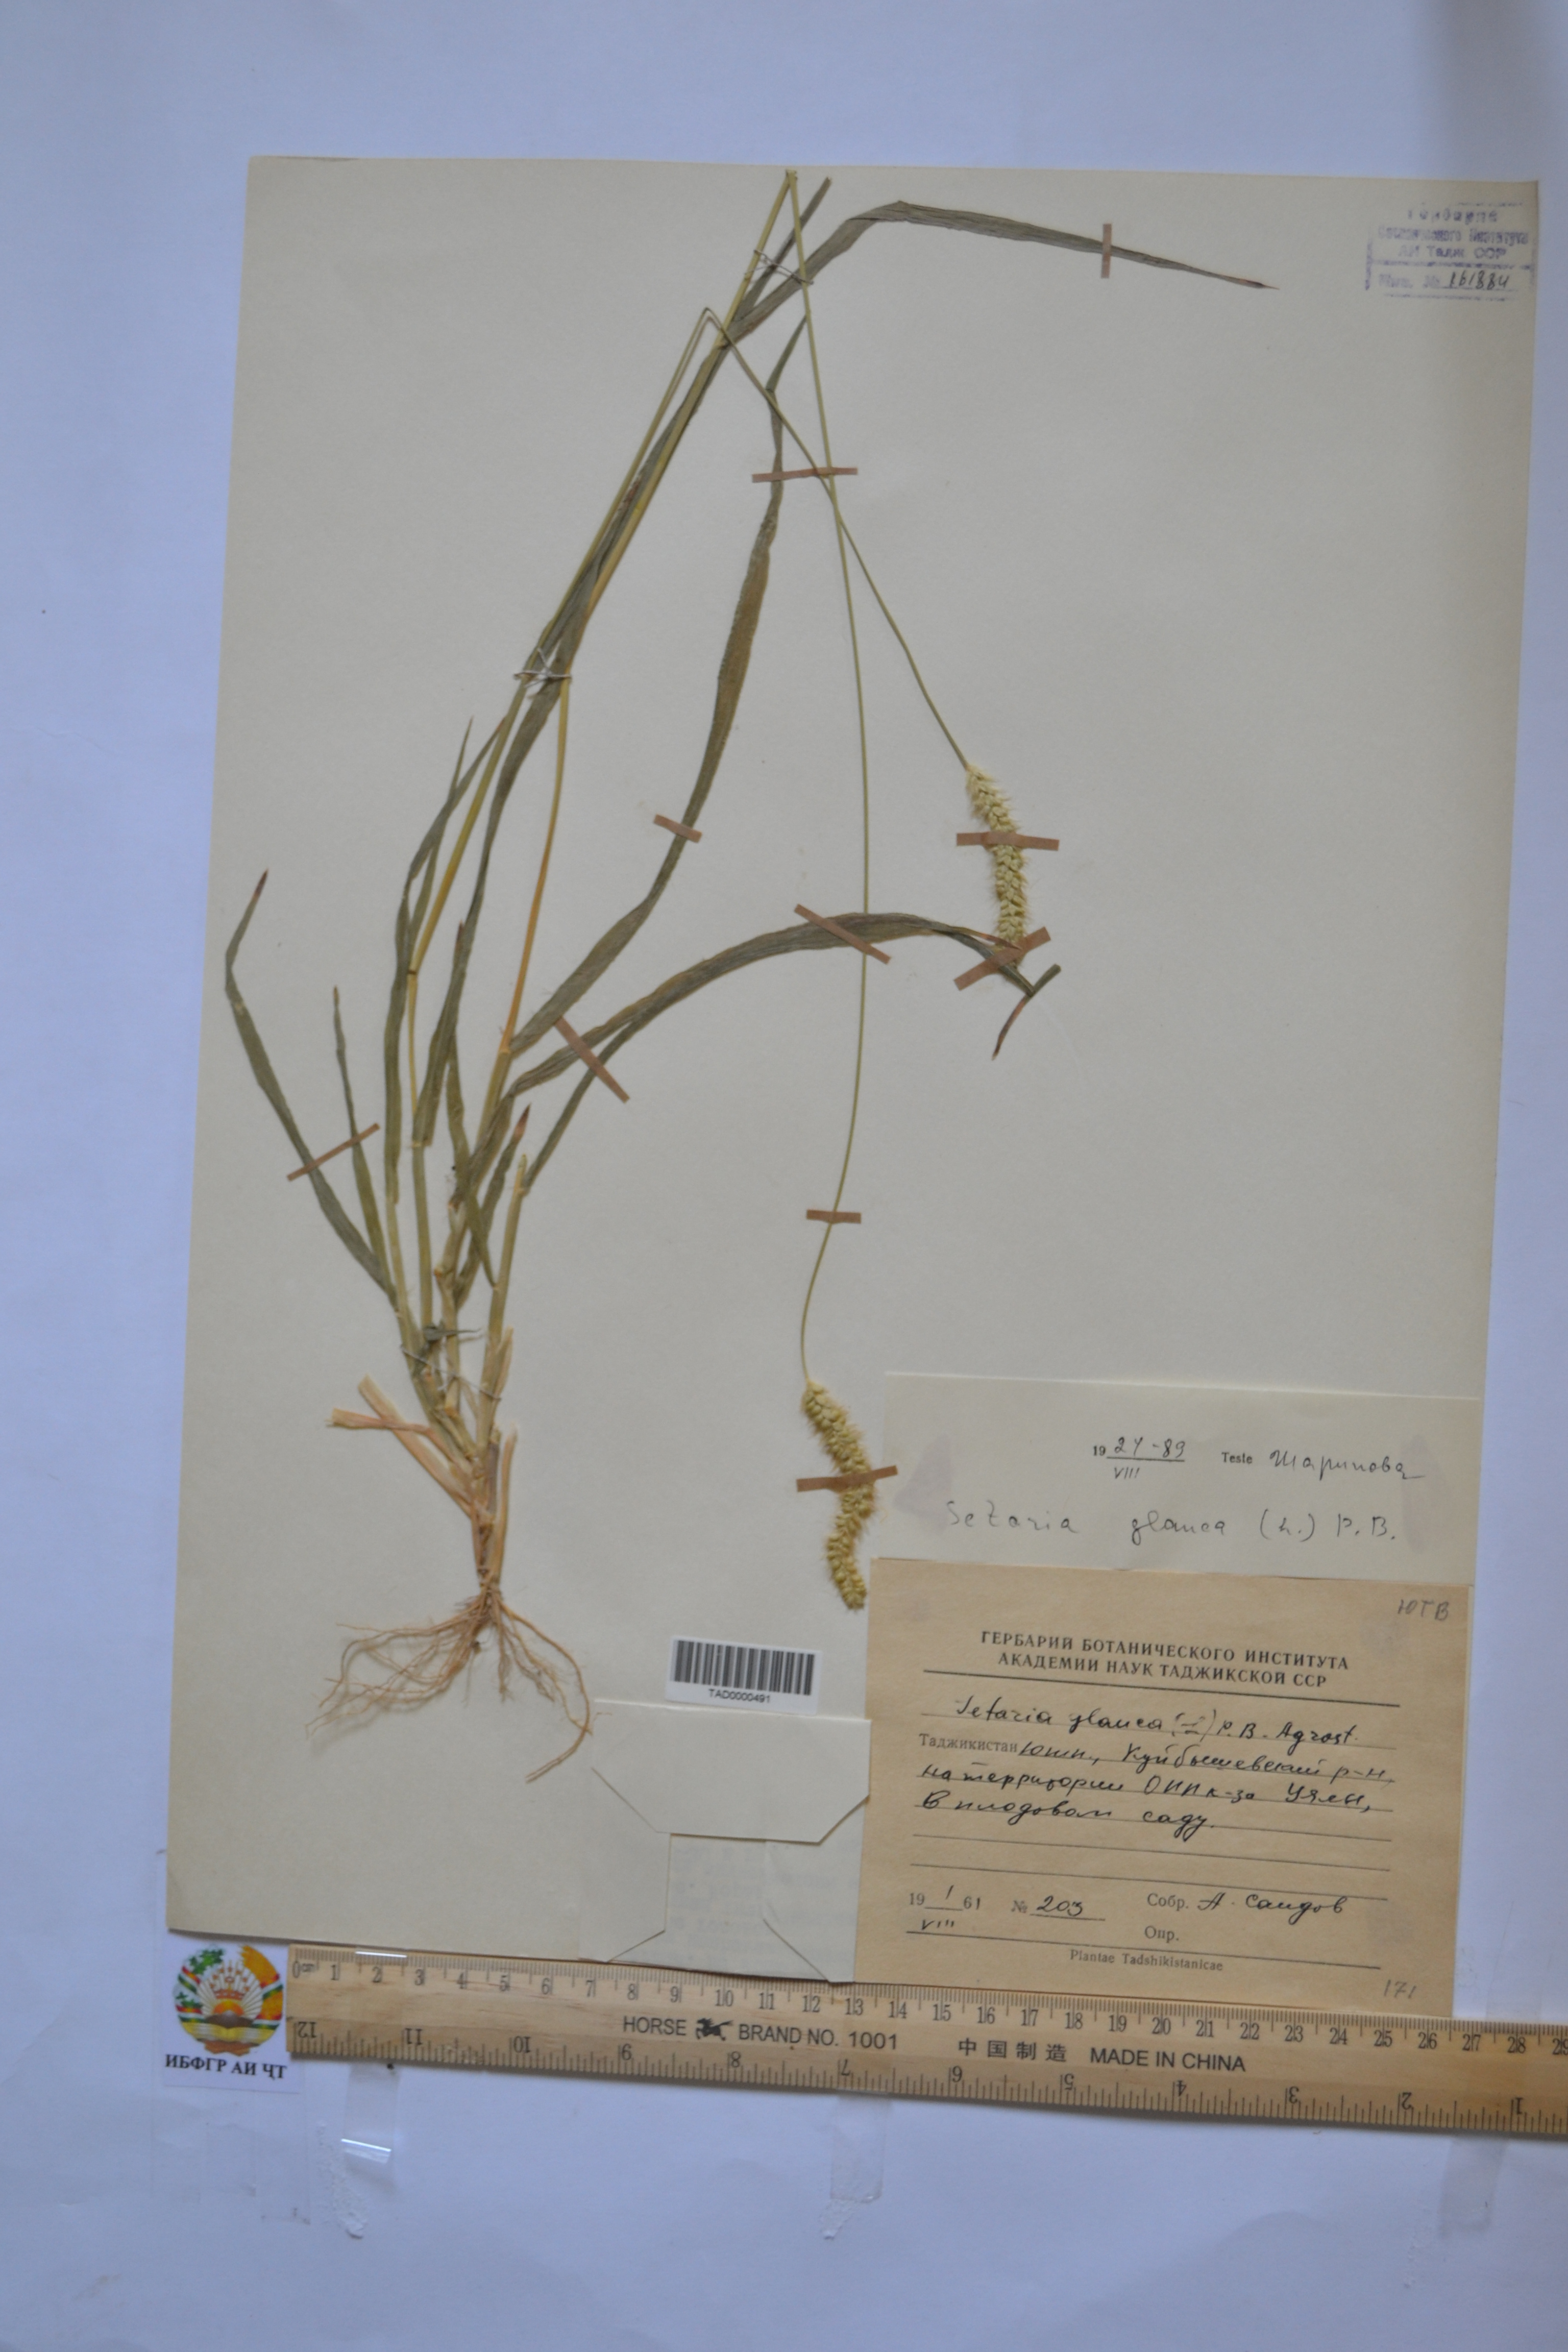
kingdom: Plantae
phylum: Tracheophyta
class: Liliopsida
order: Poales
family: Poaceae
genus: Cenchrus
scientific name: Cenchrus americanus
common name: Pearl millet
